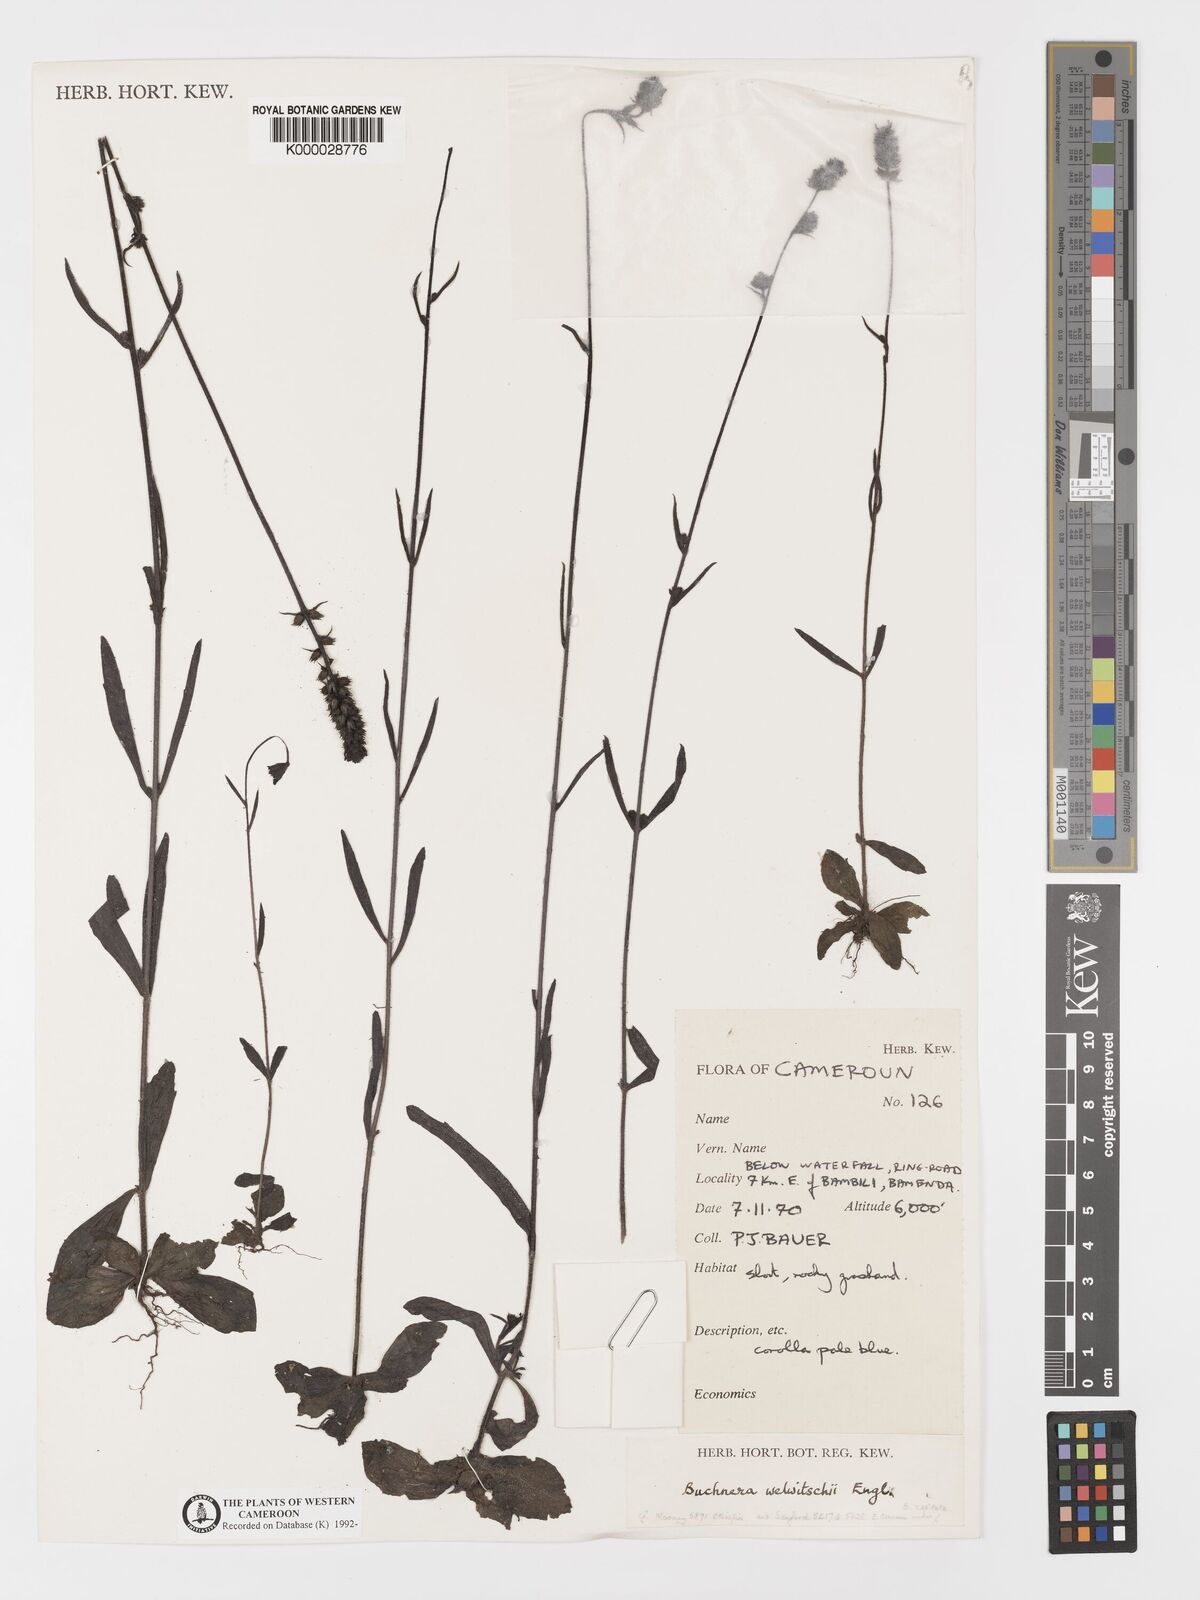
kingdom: Plantae
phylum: Tracheophyta
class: Magnoliopsida
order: Lamiales
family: Orobanchaceae
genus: Buchnera
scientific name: Buchnera welwitschii
